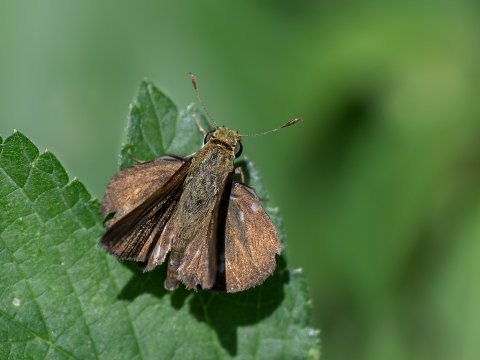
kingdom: Animalia
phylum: Arthropoda
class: Insecta
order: Lepidoptera
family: Hesperiidae
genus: Euphyes
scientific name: Euphyes vestris
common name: Dun Skipper
